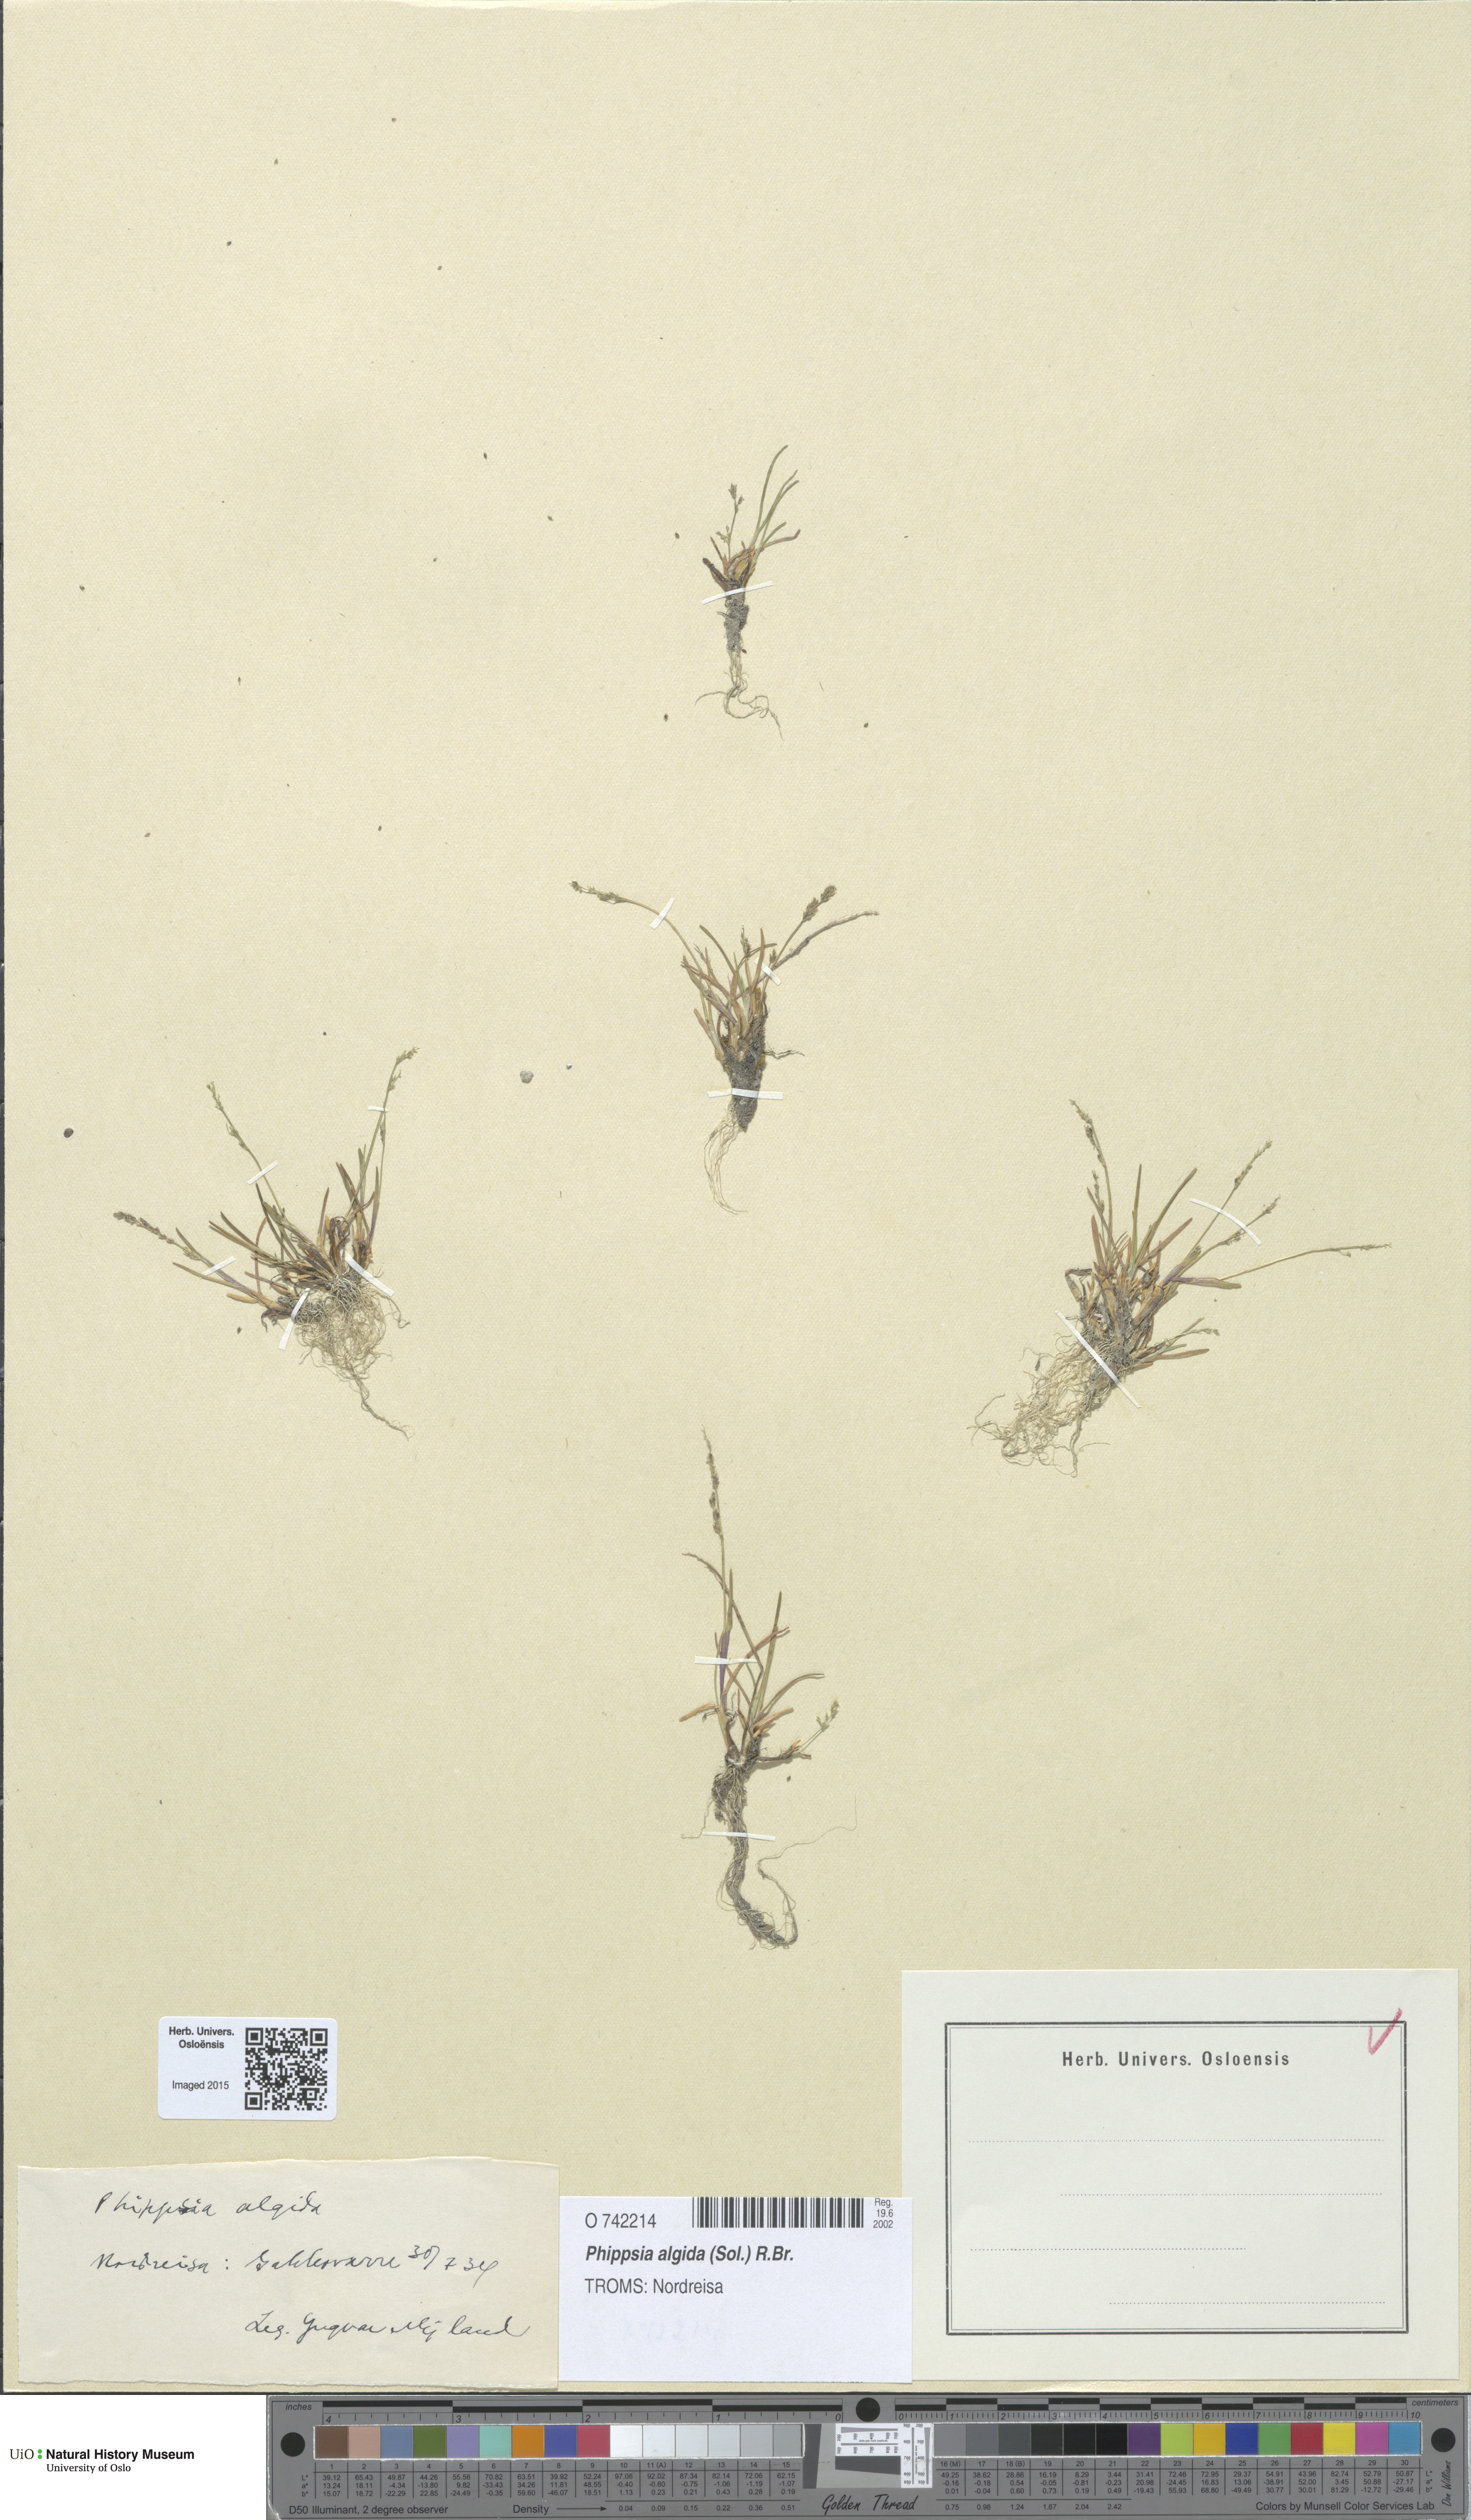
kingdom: Plantae
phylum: Tracheophyta
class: Liliopsida
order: Poales
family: Poaceae
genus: Phippsia
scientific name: Phippsia algida
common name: Ice grass
